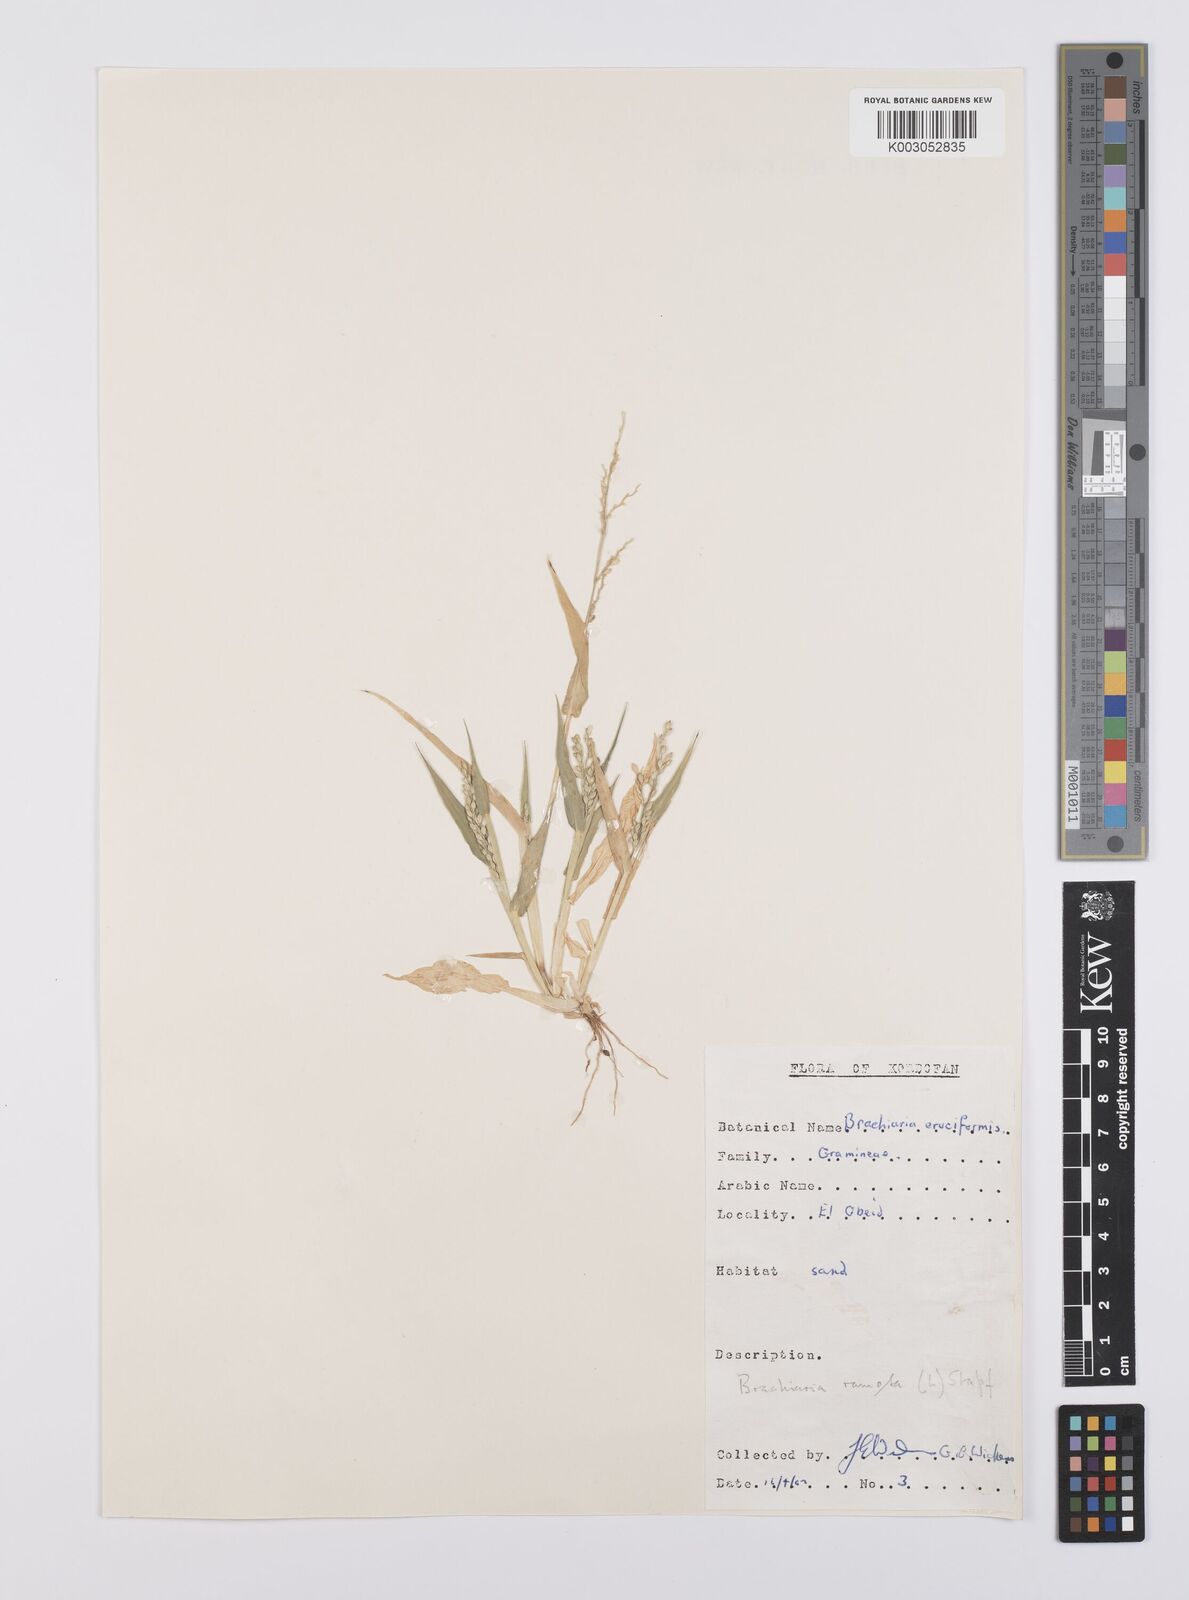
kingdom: Plantae
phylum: Tracheophyta
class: Liliopsida
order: Poales
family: Poaceae
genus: Urochloa
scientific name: Urochloa lata
